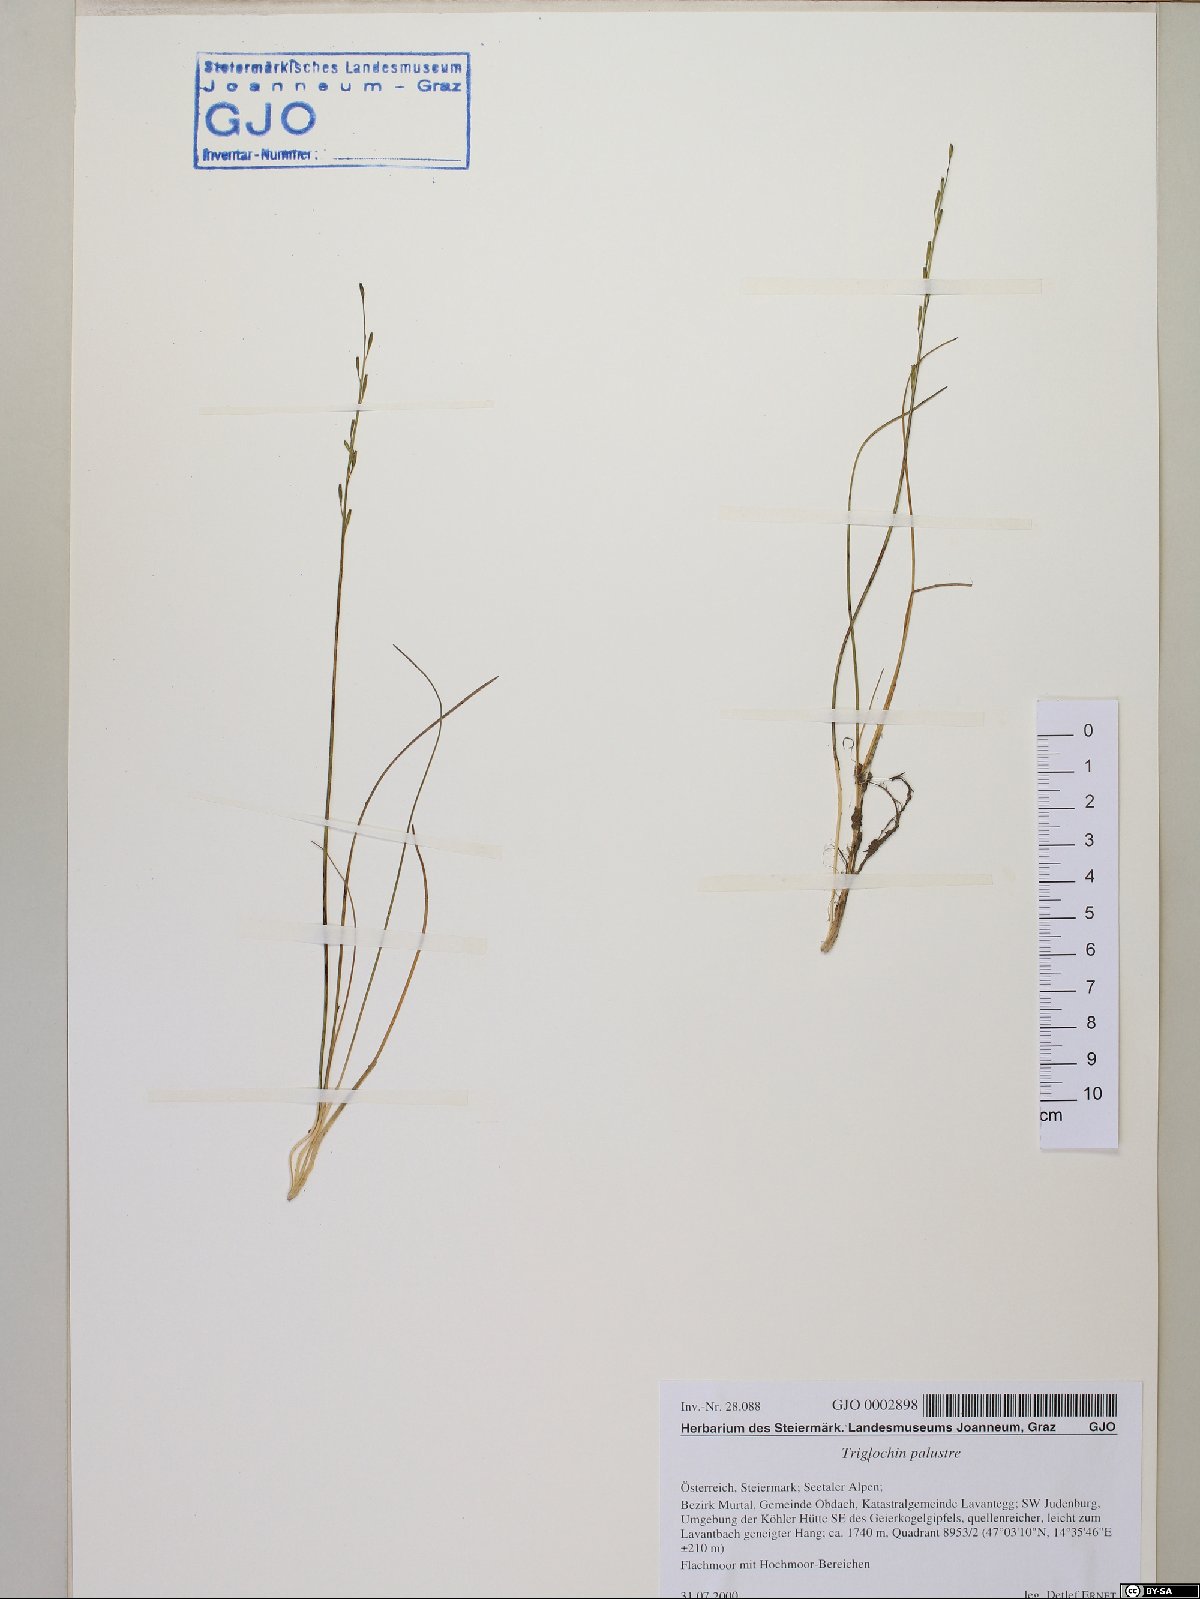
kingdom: Plantae
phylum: Tracheophyta
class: Liliopsida
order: Alismatales
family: Juncaginaceae
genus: Triglochin
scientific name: Triglochin palustris
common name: Marsh arrowgrass
